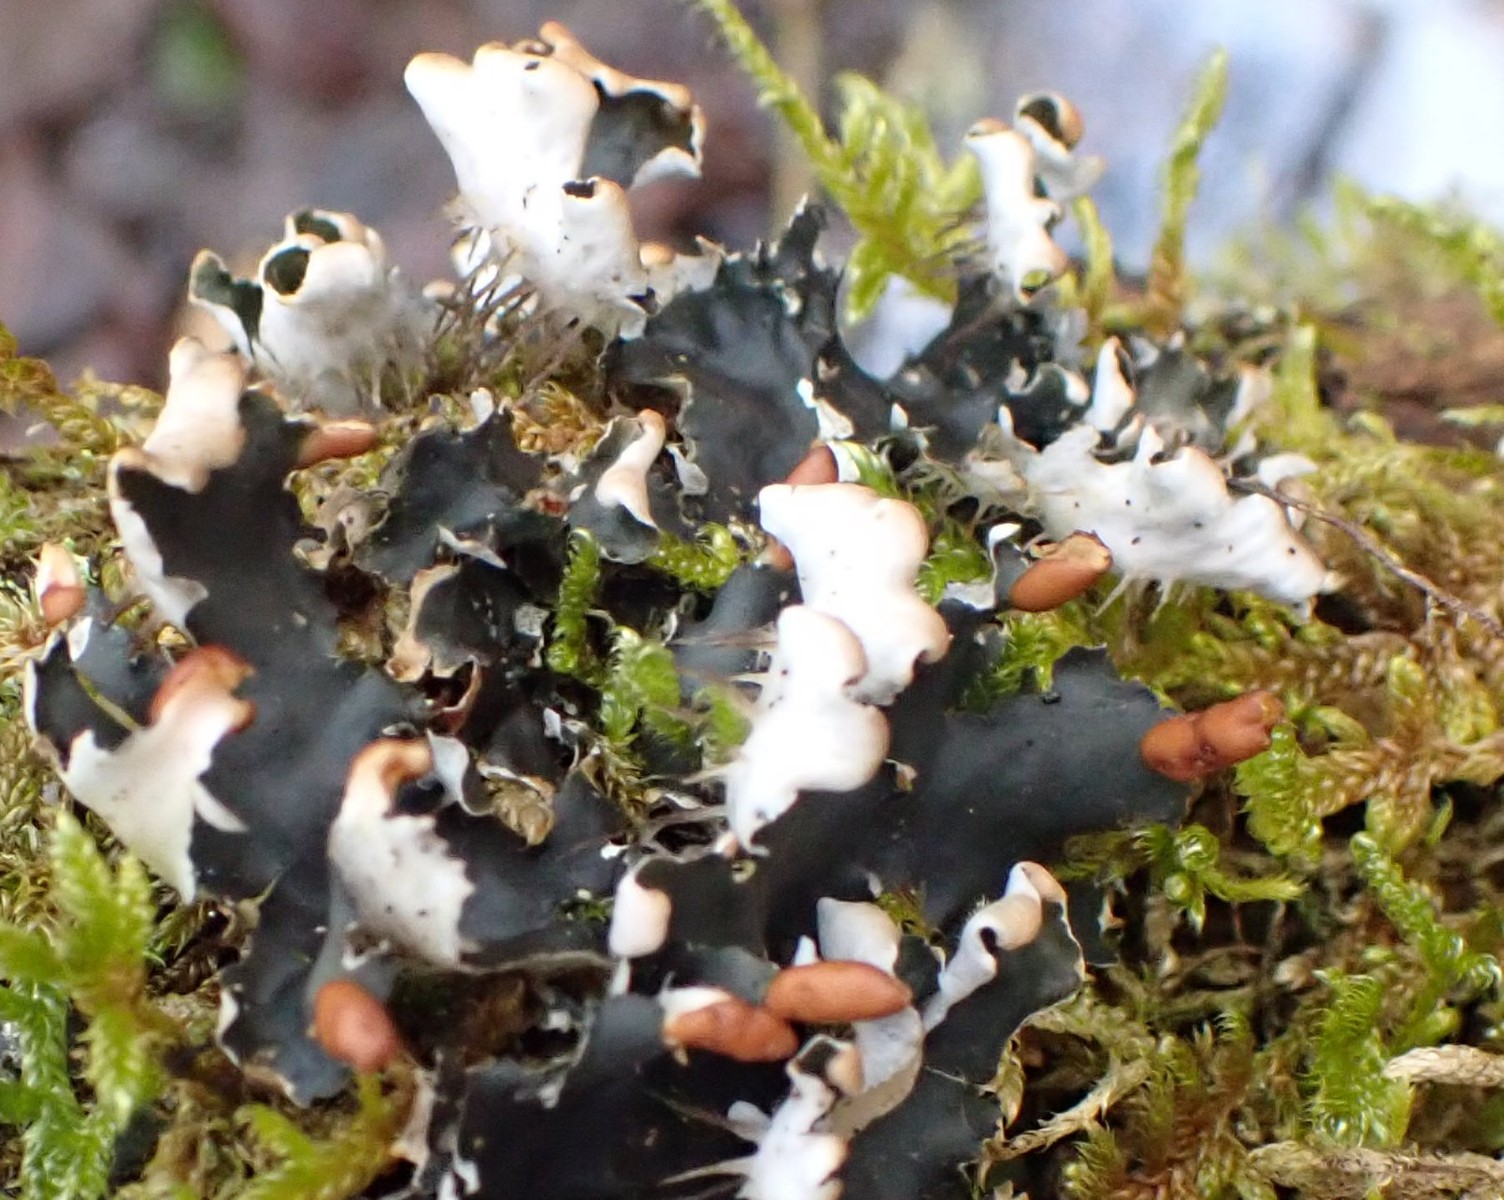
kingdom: Fungi
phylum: Ascomycota
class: Lecanoromycetes
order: Peltigerales
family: Peltigeraceae
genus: Peltigera
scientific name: Peltigera hymenina
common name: hinde-skjoldlav
